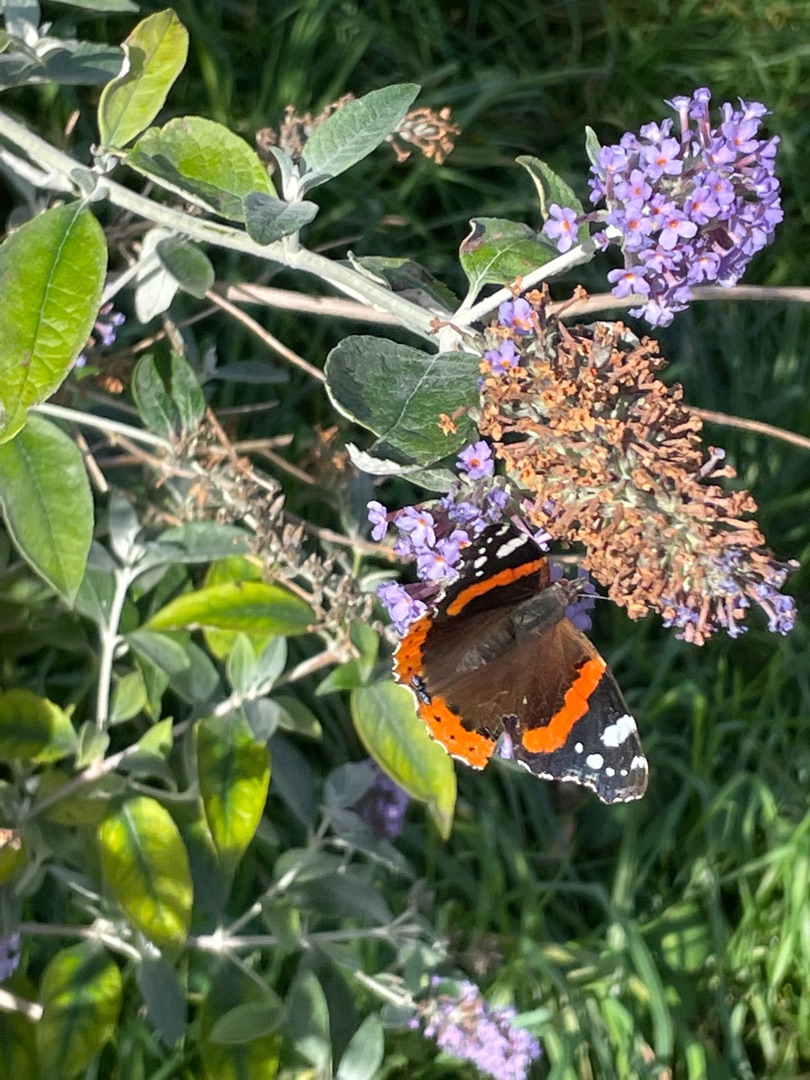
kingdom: Animalia
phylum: Arthropoda
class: Insecta
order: Lepidoptera
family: Nymphalidae
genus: Vanessa
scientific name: Vanessa atalanta
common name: Admiral
